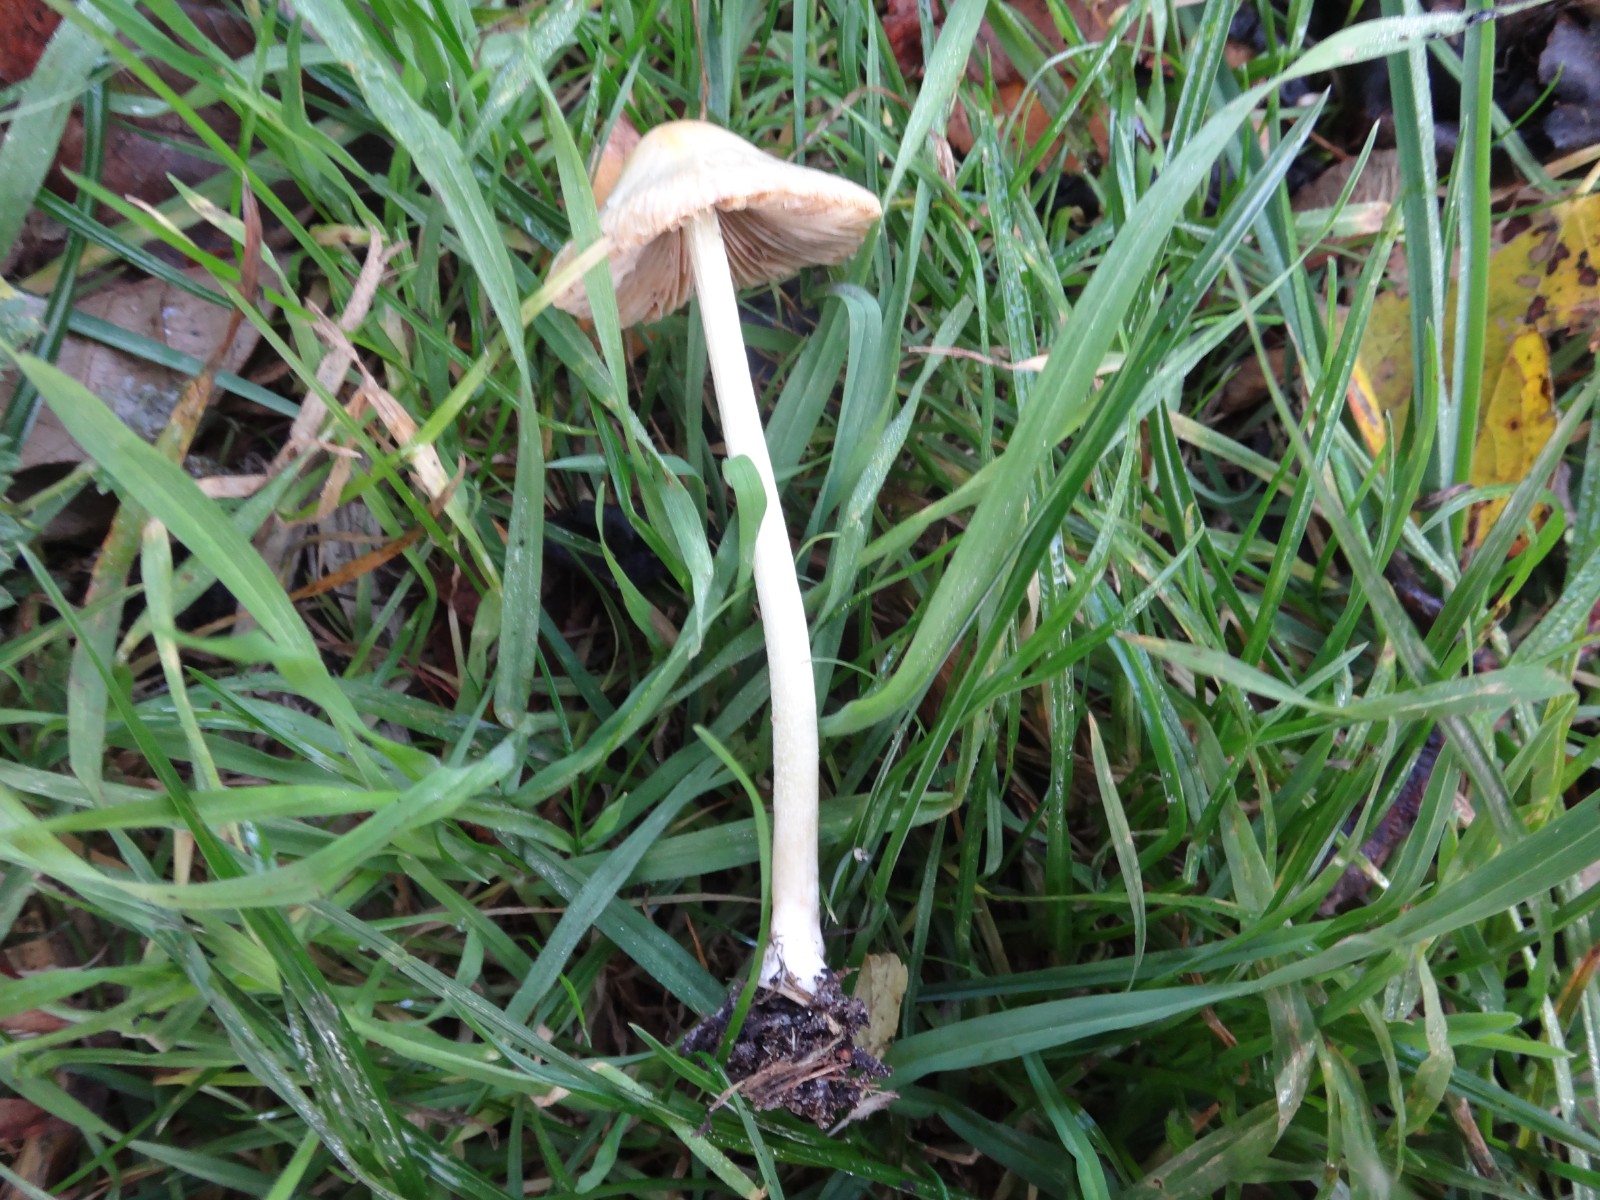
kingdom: Fungi
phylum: Basidiomycota
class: Agaricomycetes
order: Agaricales
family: Bolbitiaceae
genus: Bolbitius
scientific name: Bolbitius titubans
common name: almindelig gulhat
